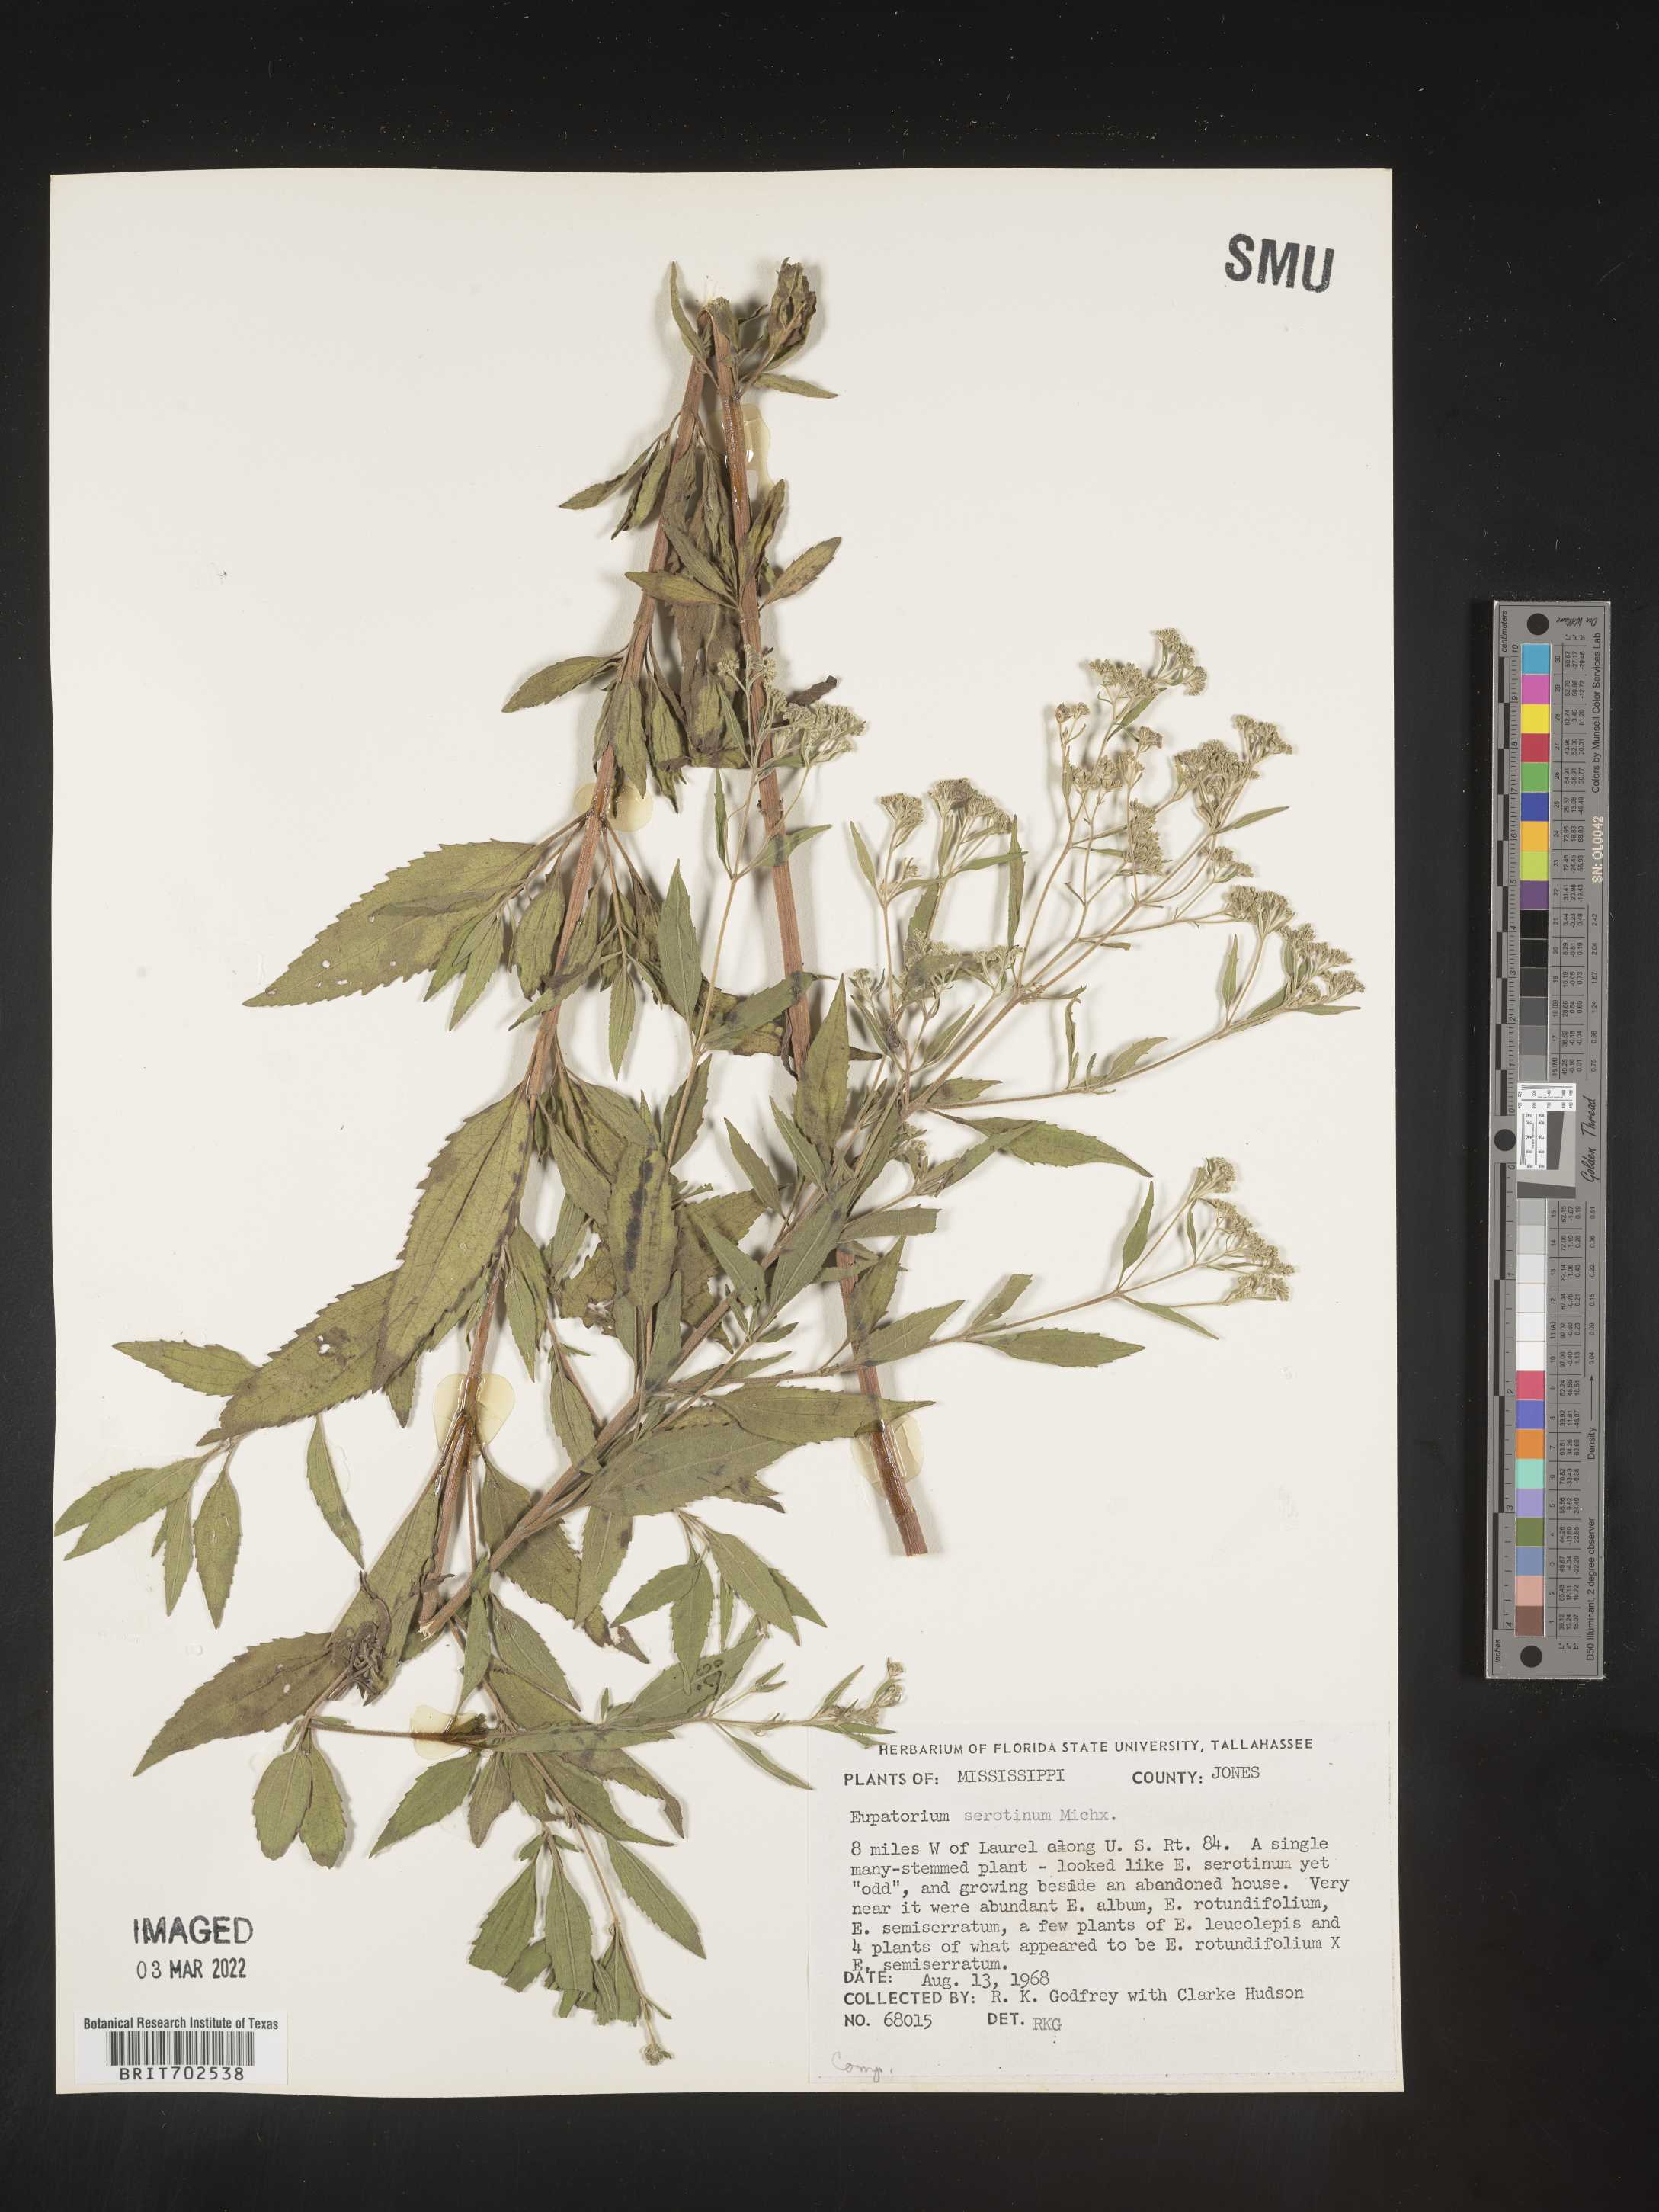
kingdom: Plantae
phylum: Tracheophyta
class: Magnoliopsida
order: Asterales
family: Asteraceae
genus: Eupatorium
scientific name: Eupatorium serotinum
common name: Late boneset
